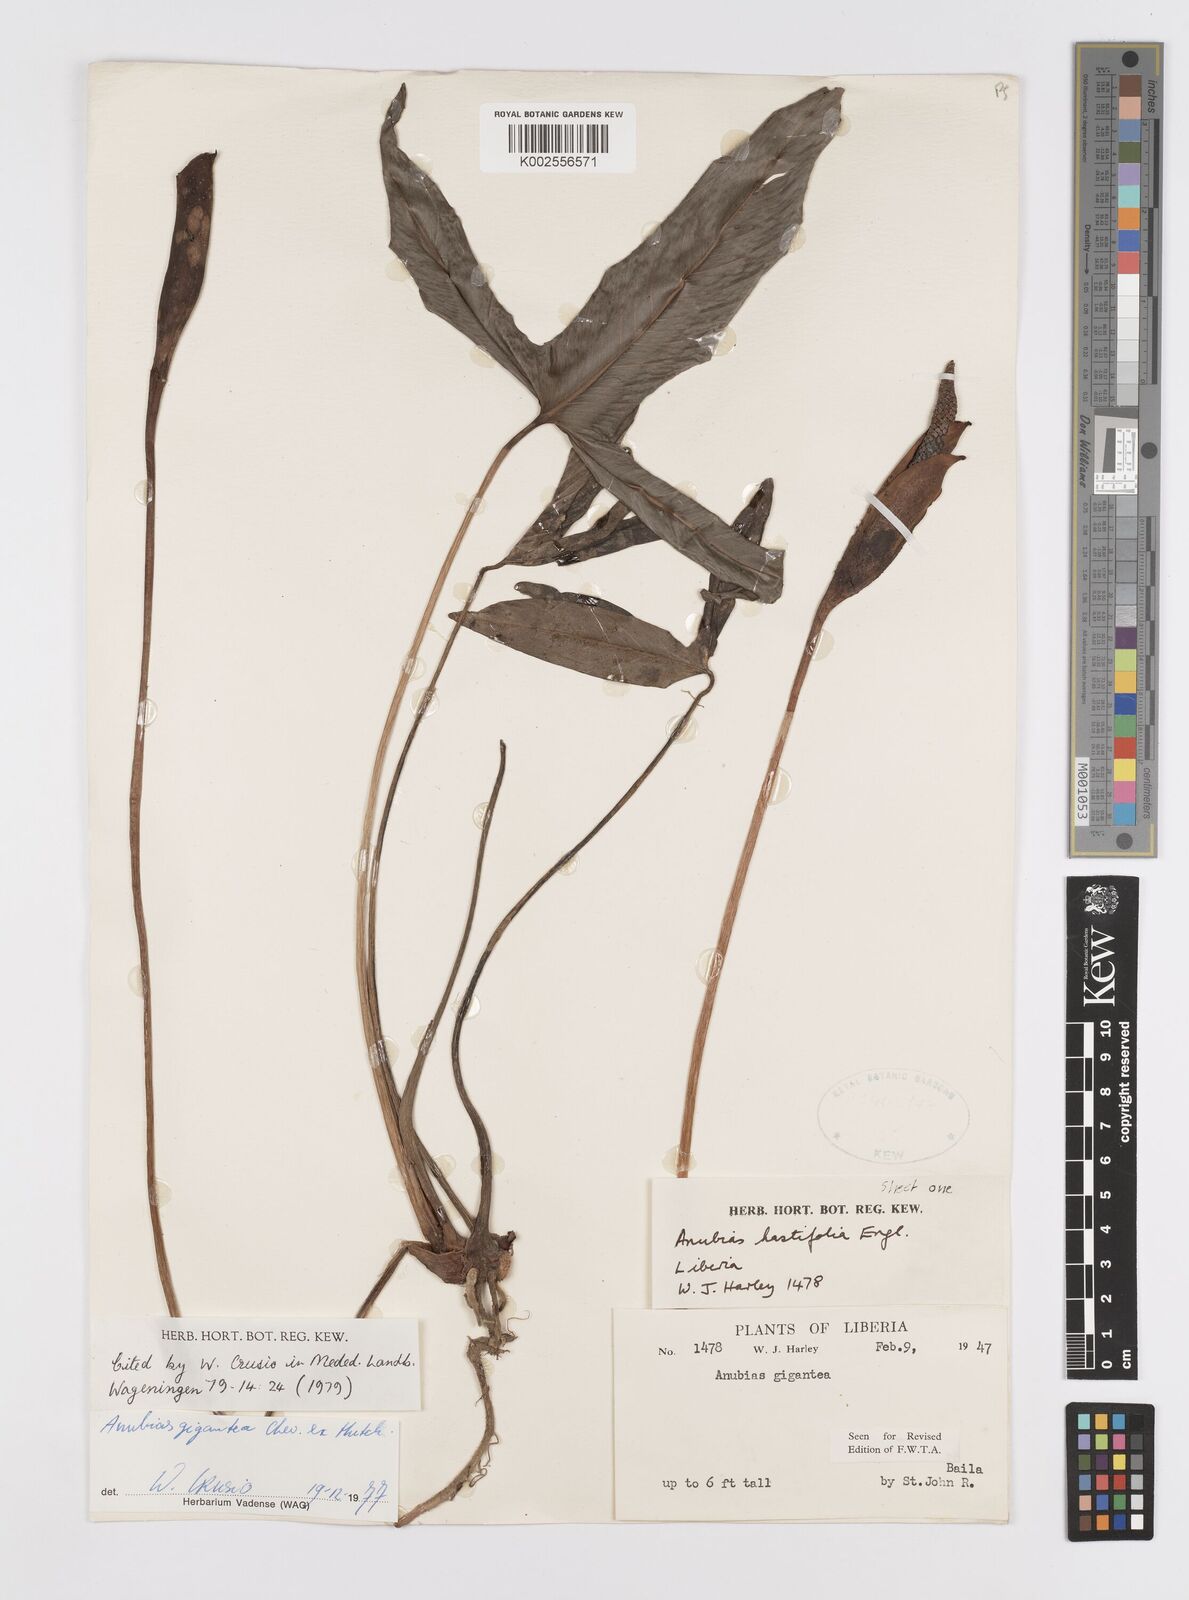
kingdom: Plantae
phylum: Tracheophyta
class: Liliopsida
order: Alismatales
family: Araceae
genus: Anubias
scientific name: Anubias gigantea
